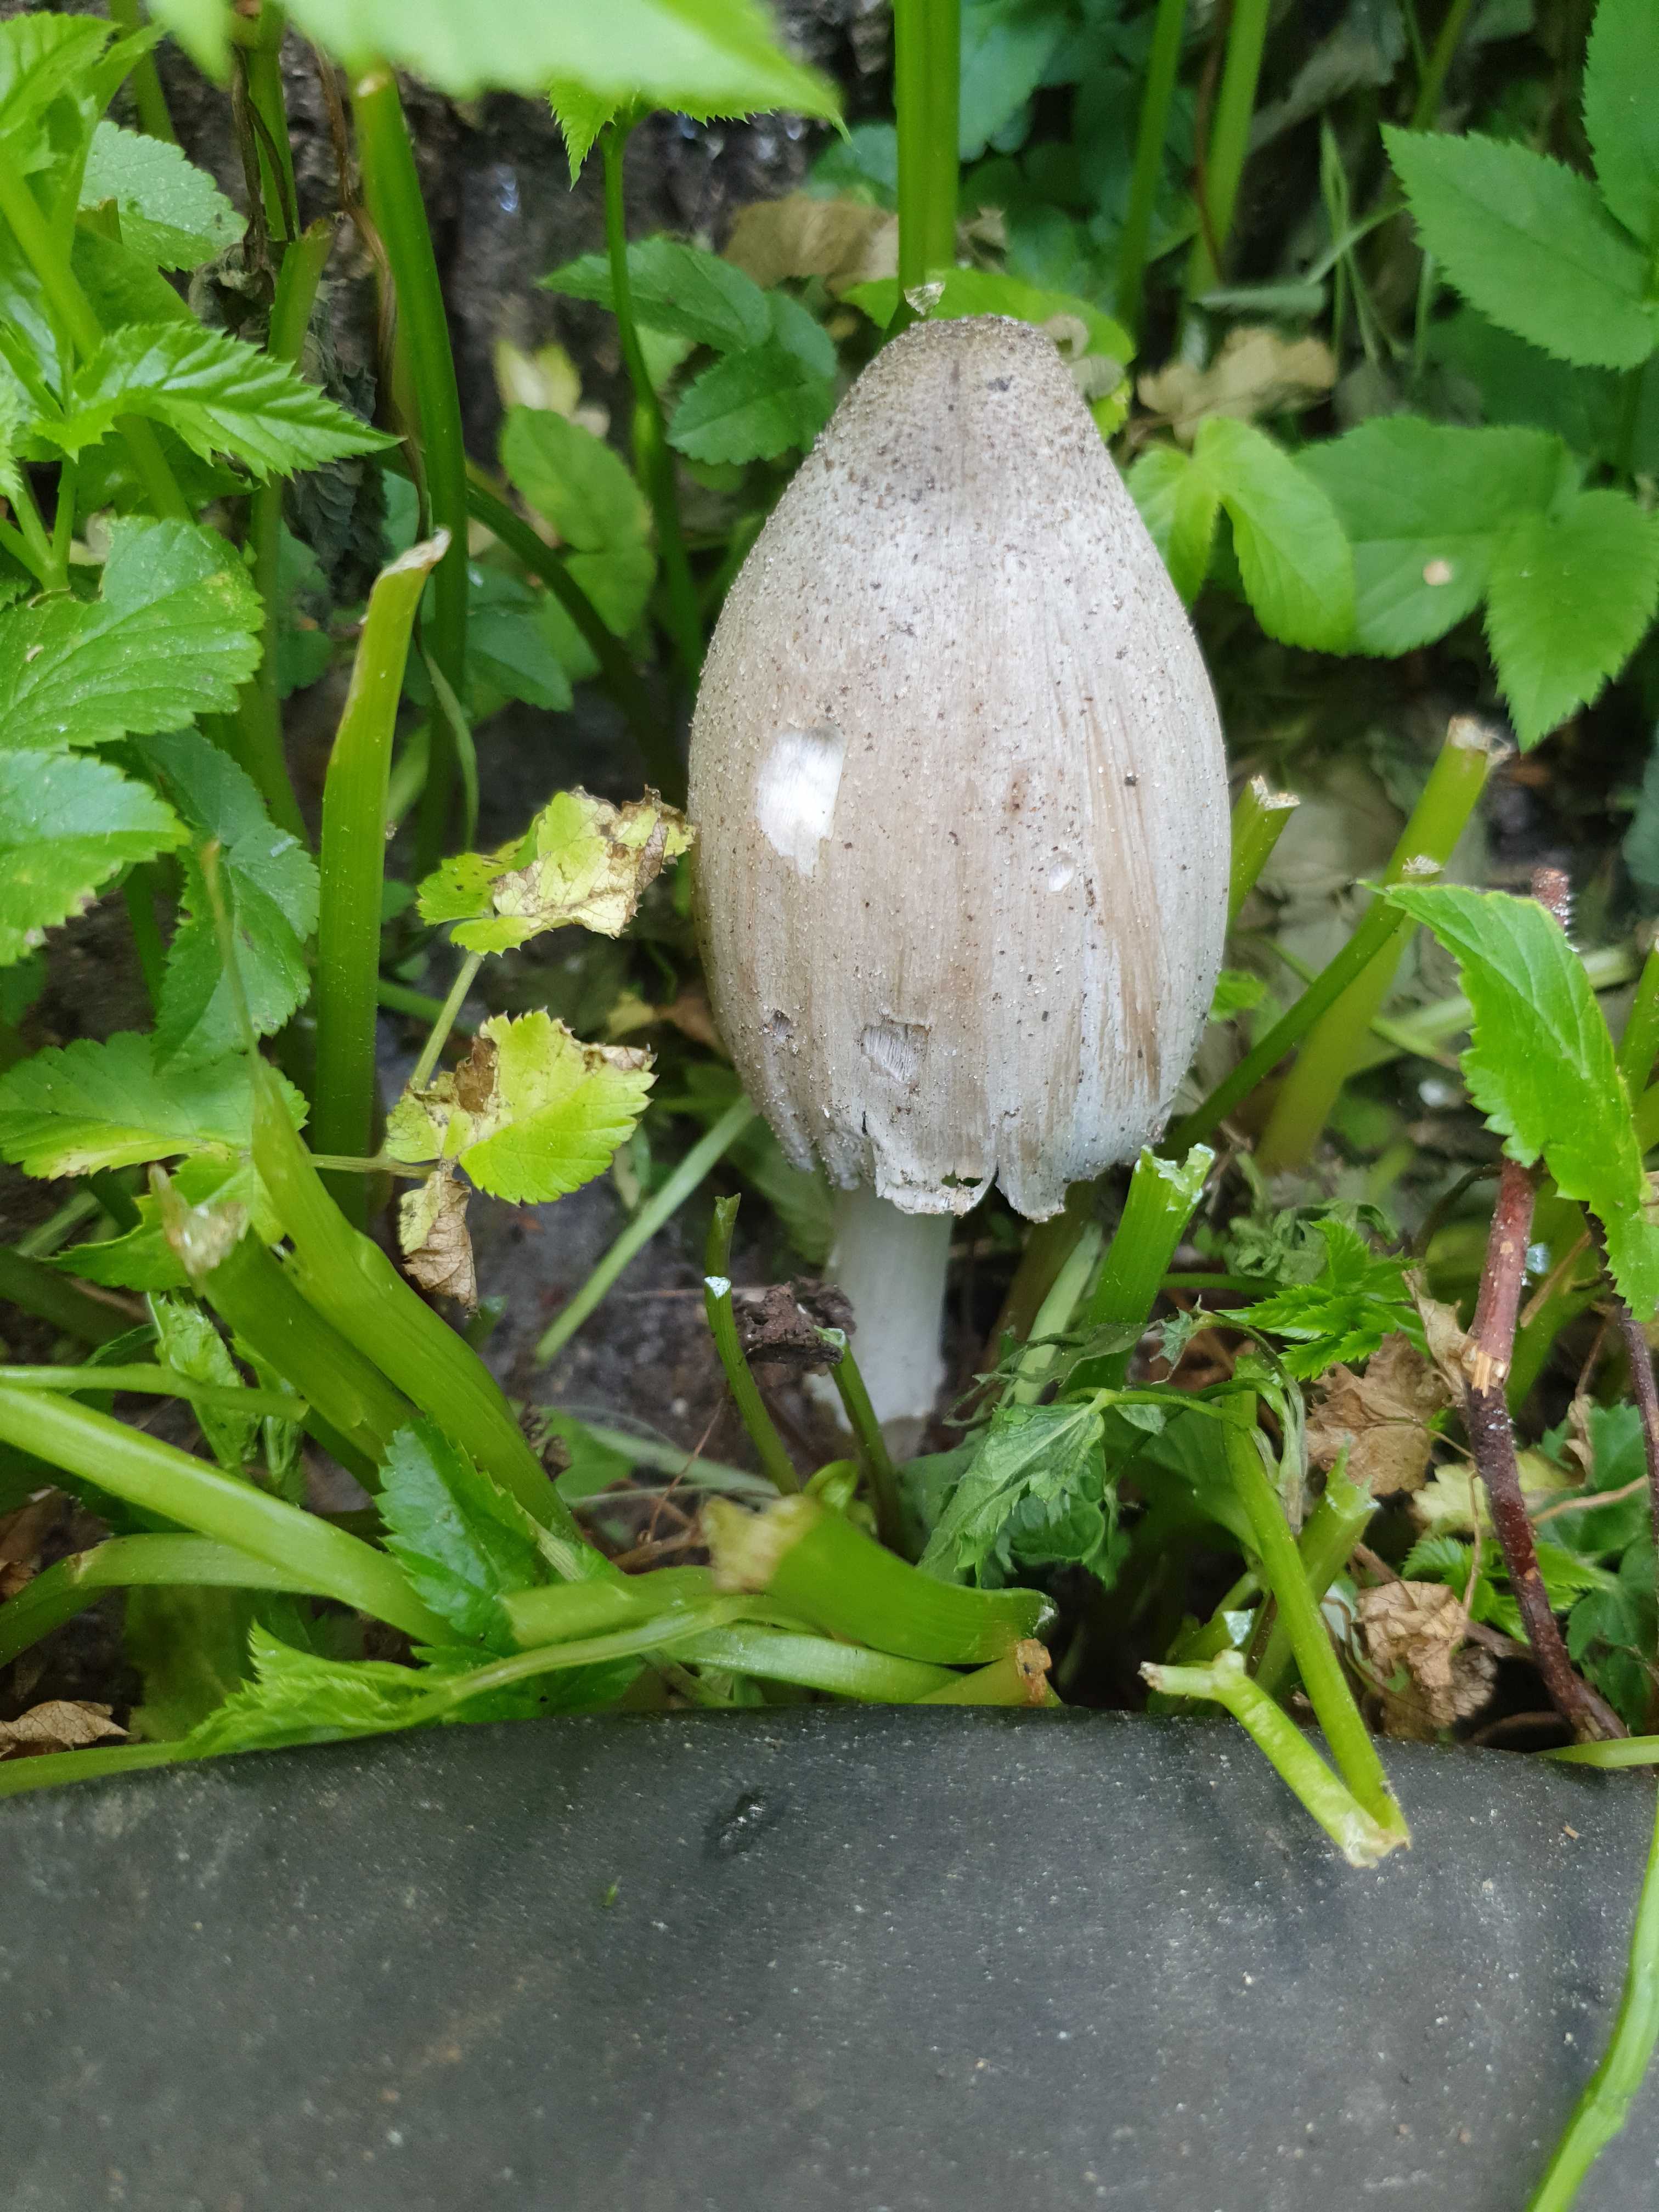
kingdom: Fungi
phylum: Basidiomycota
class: Agaricomycetes
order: Agaricales
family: Psathyrellaceae
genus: Coprinopsis
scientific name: Coprinopsis atramentaria
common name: almindelig blækhat
